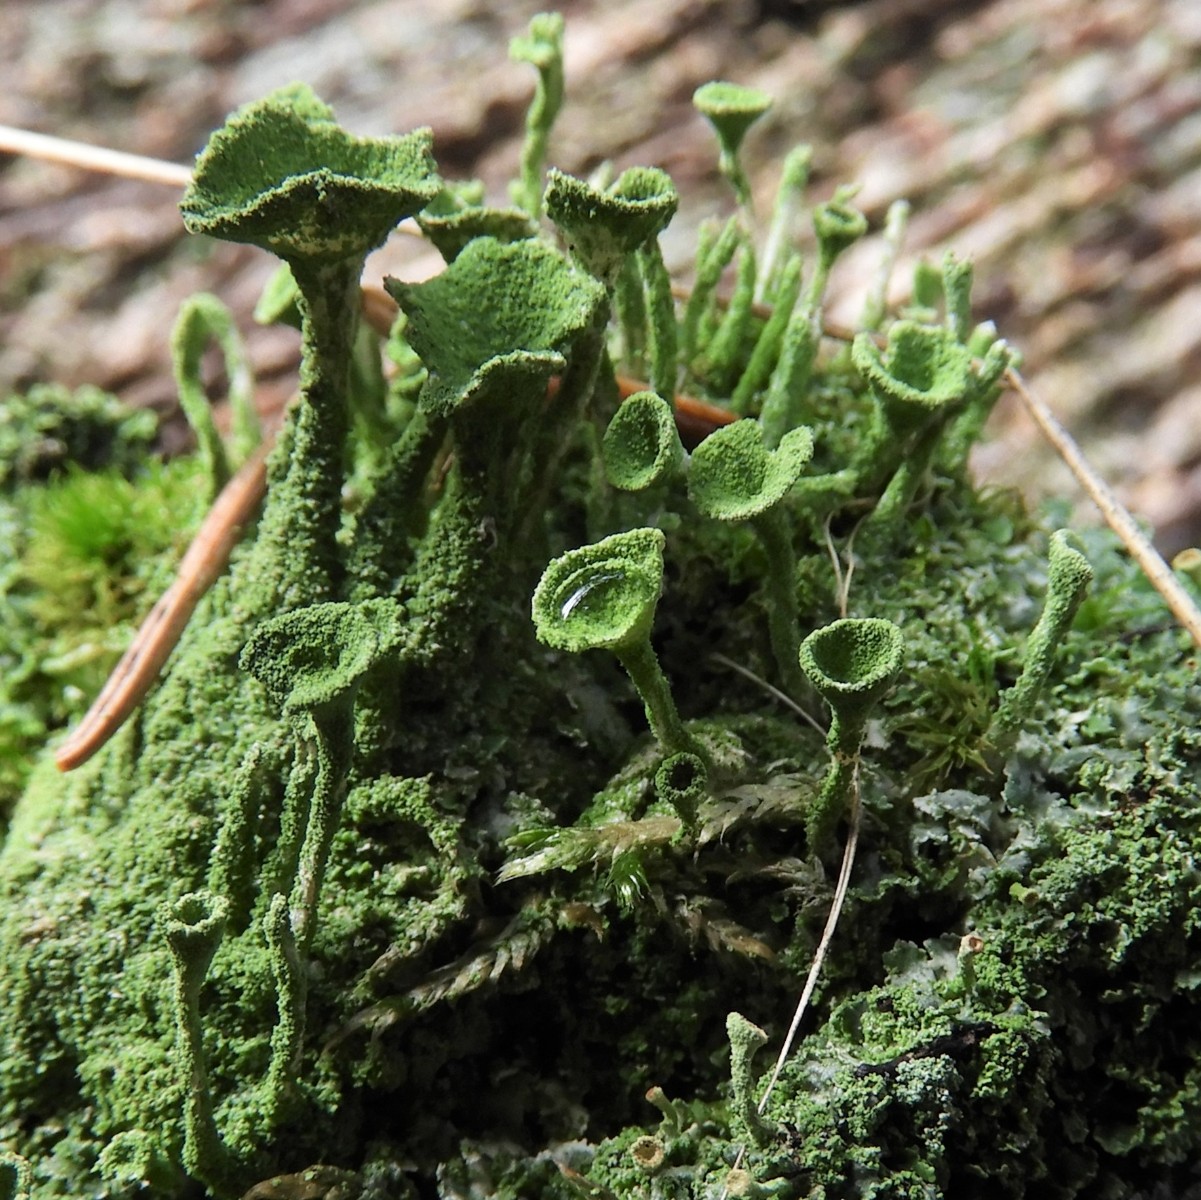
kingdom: Fungi
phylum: Ascomycota
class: Lecanoromycetes
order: Lecanorales
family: Cladoniaceae
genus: Cladonia
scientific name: Cladonia
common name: brungrøn bægerlav
